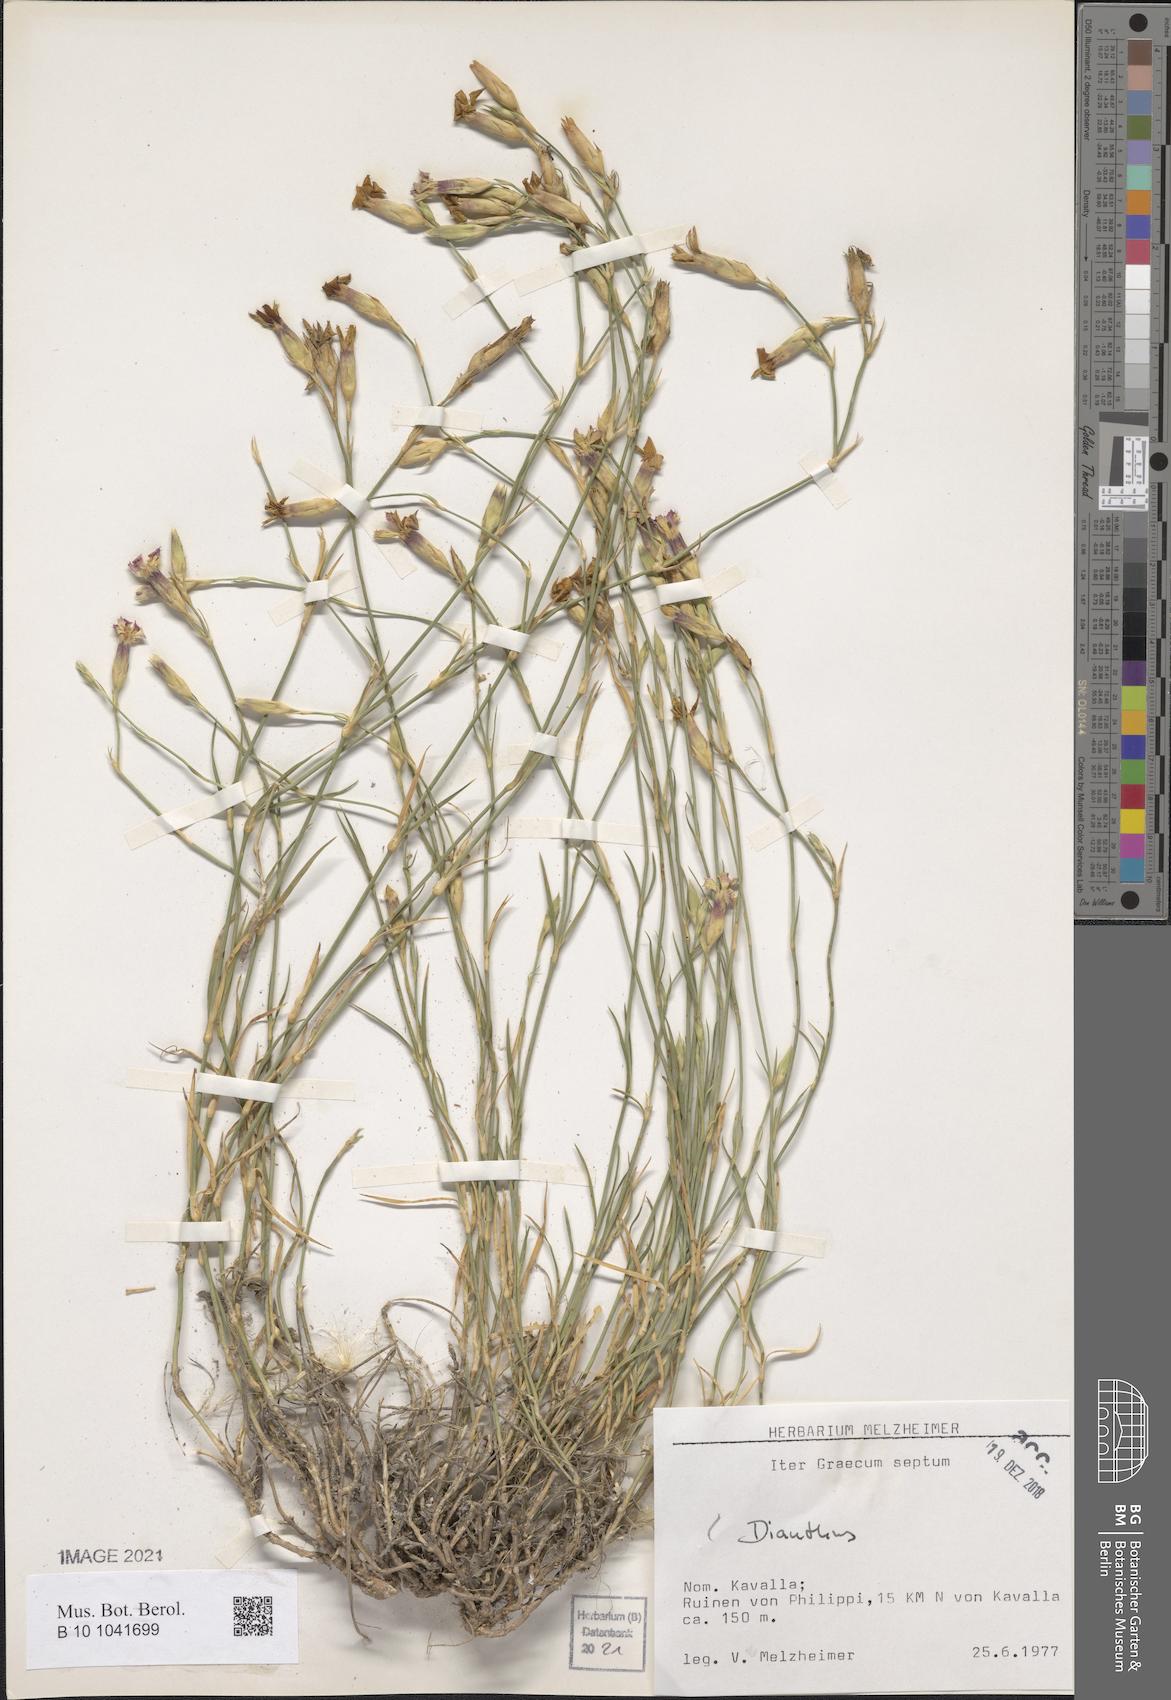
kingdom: Plantae
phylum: Tracheophyta
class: Magnoliopsida
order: Caryophyllales
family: Caryophyllaceae
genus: Dianthus
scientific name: Dianthus
